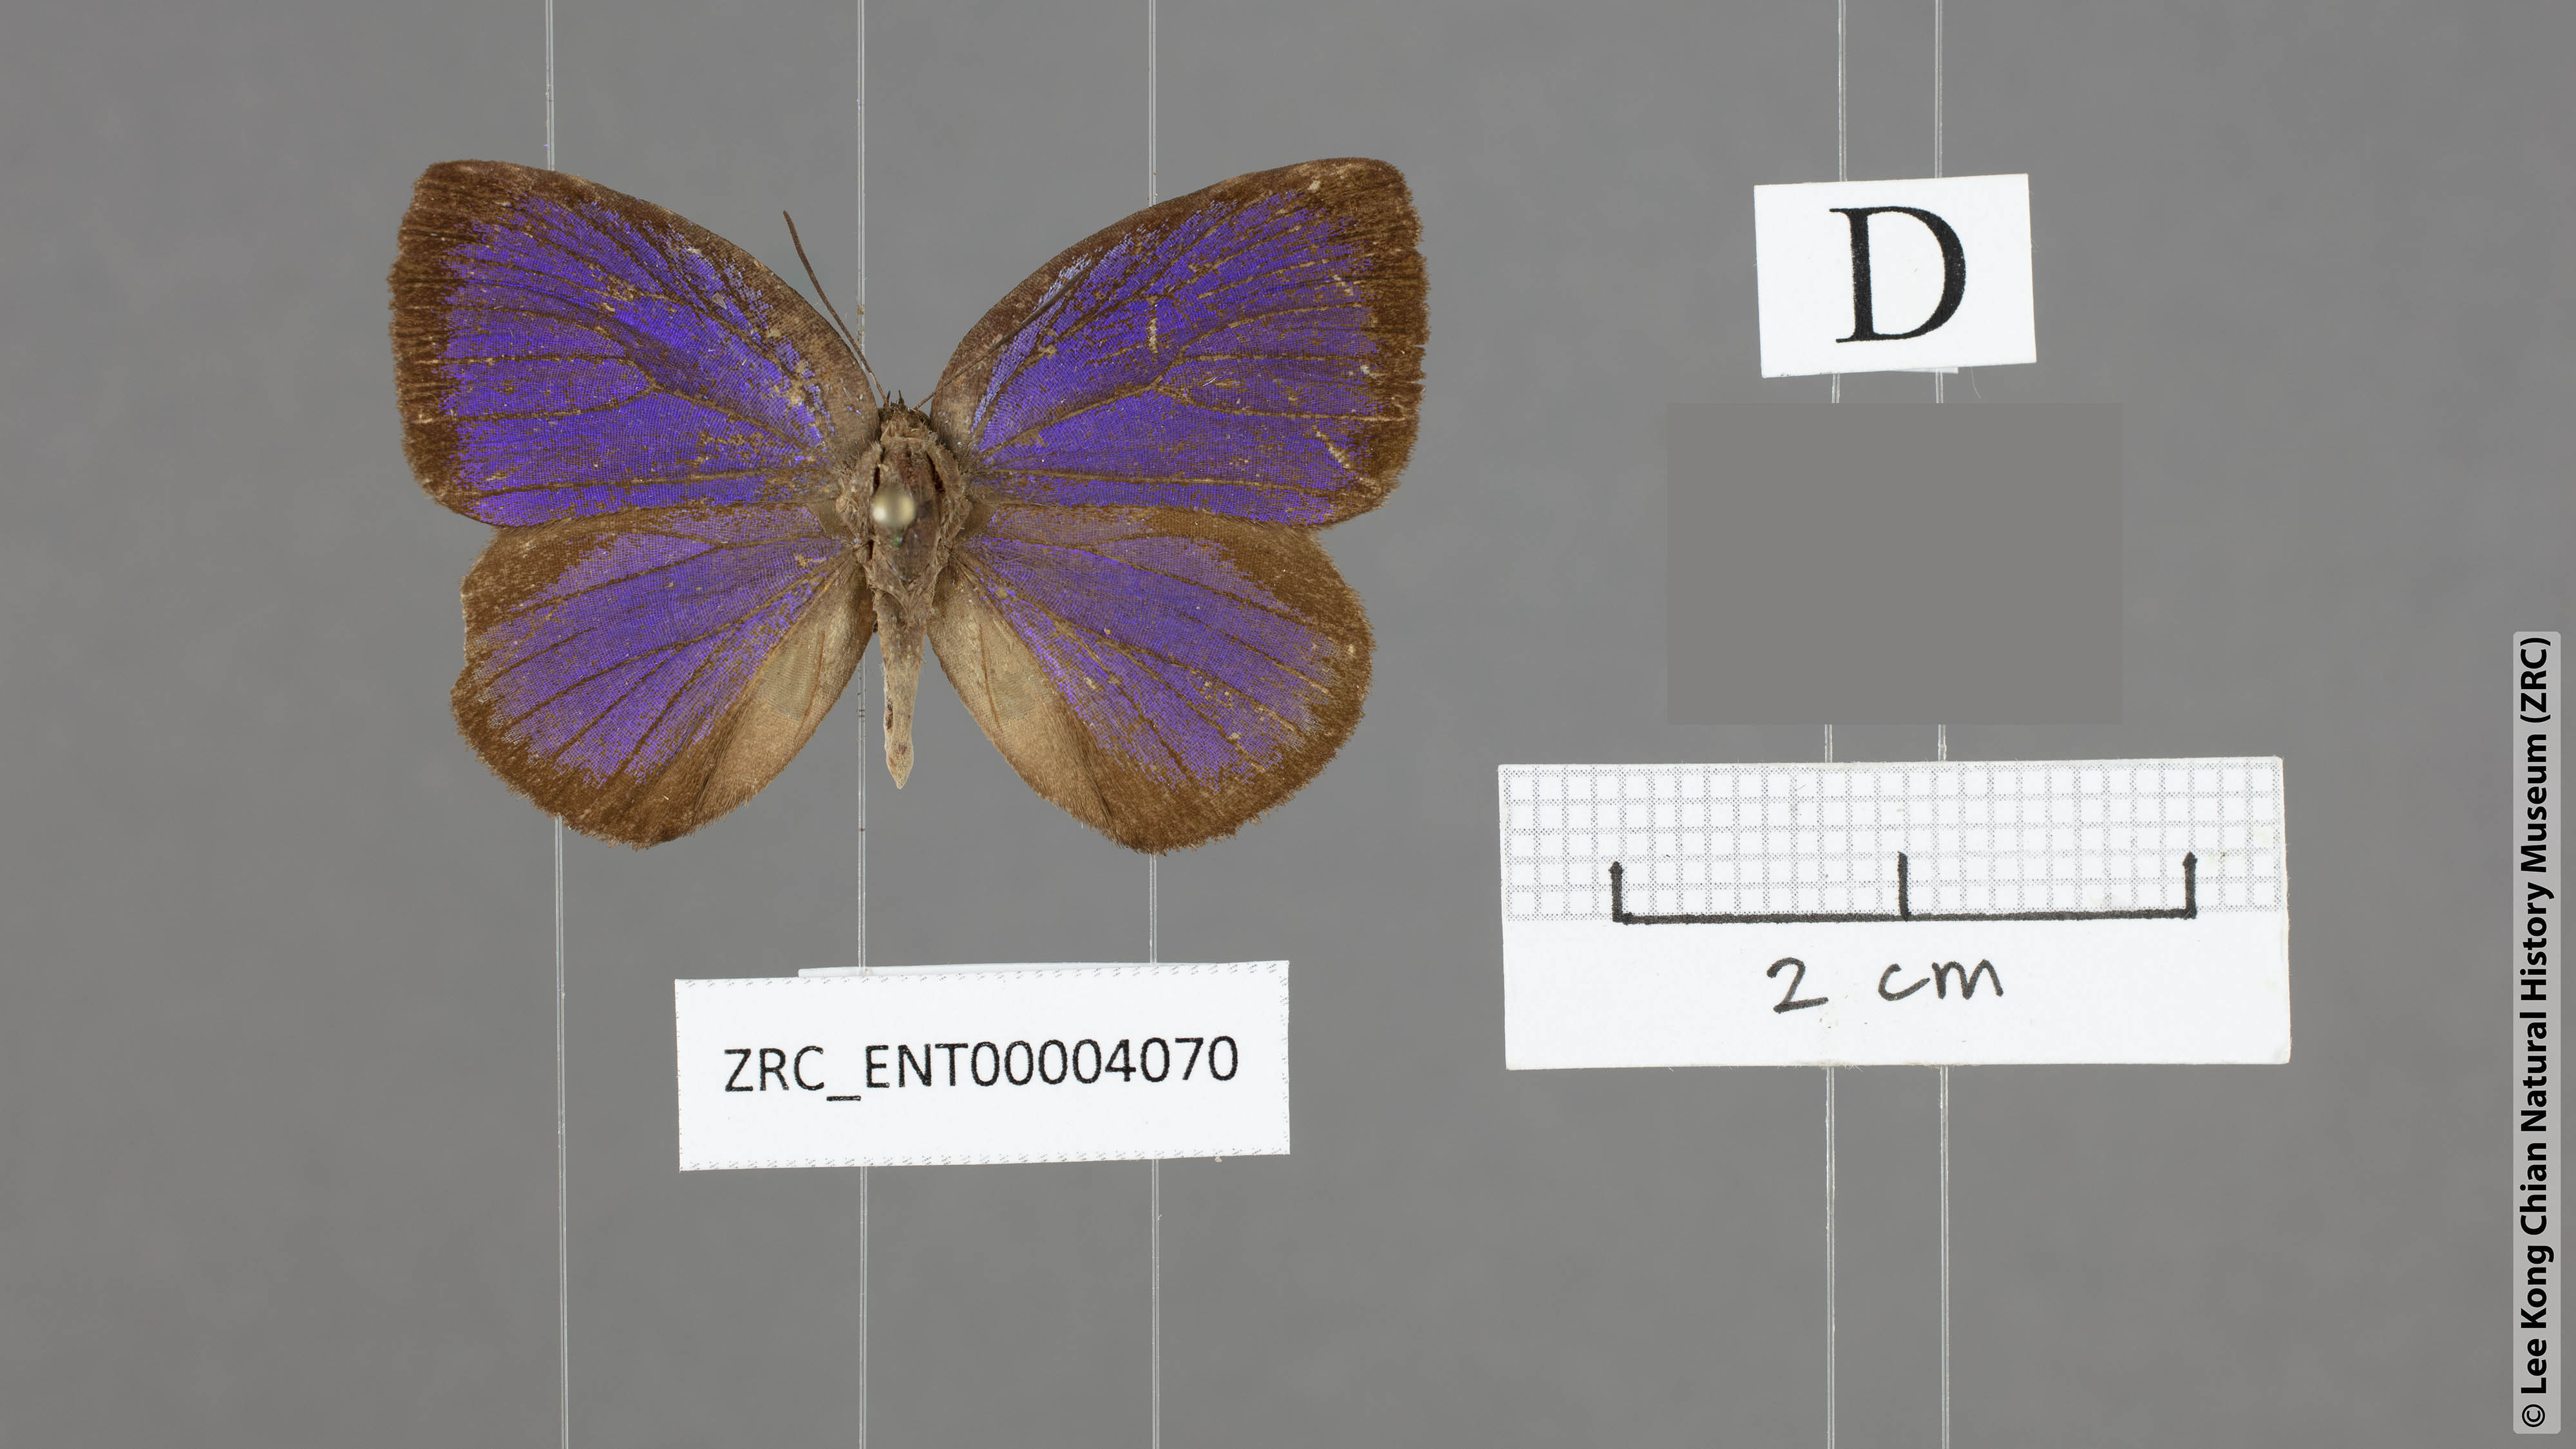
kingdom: Animalia
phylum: Arthropoda
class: Insecta
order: Lepidoptera
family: Lycaenidae
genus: Arhopala
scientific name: Arhopala zylda
